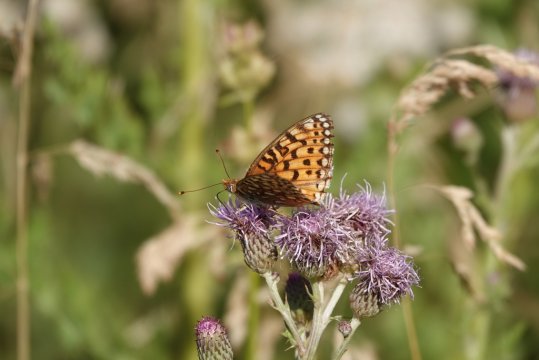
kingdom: Animalia
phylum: Arthropoda
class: Insecta
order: Lepidoptera
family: Nymphalidae
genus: Speyeria
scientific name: Speyeria
